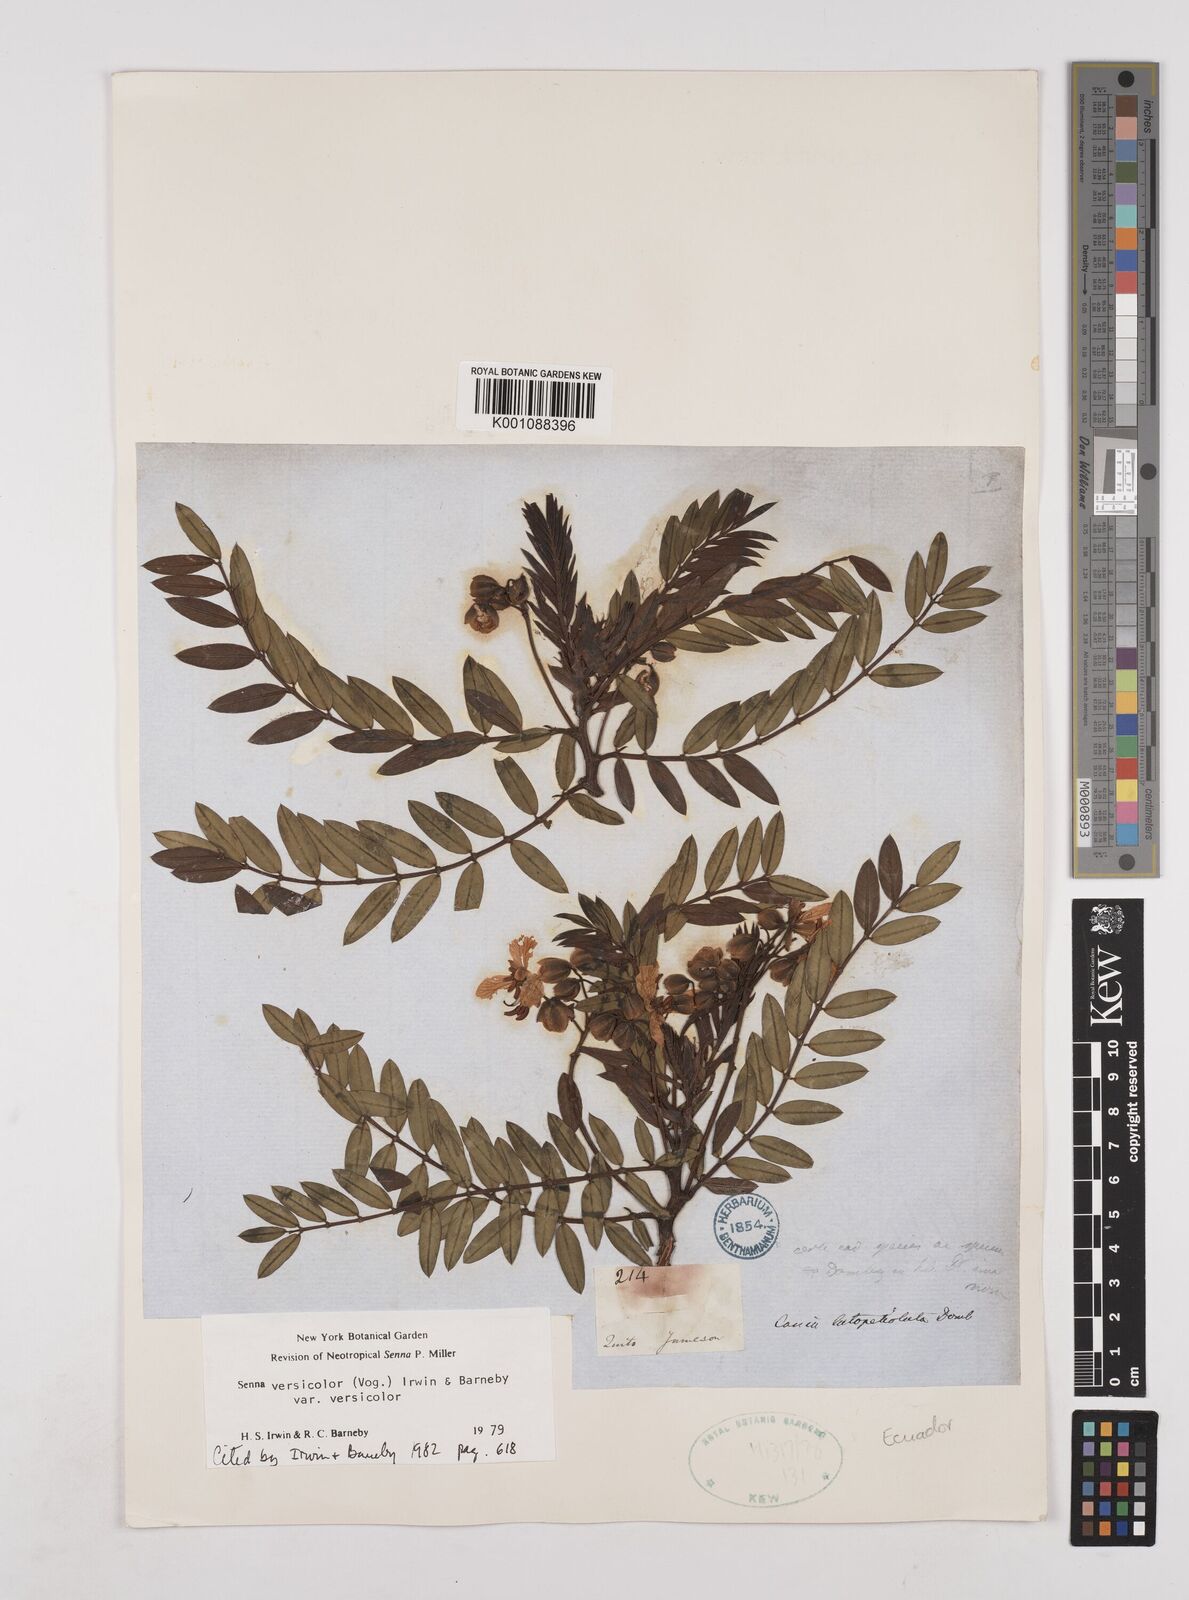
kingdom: Plantae
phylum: Tracheophyta
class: Magnoliopsida
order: Fabales
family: Fabaceae
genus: Senna
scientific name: Senna versicolor
